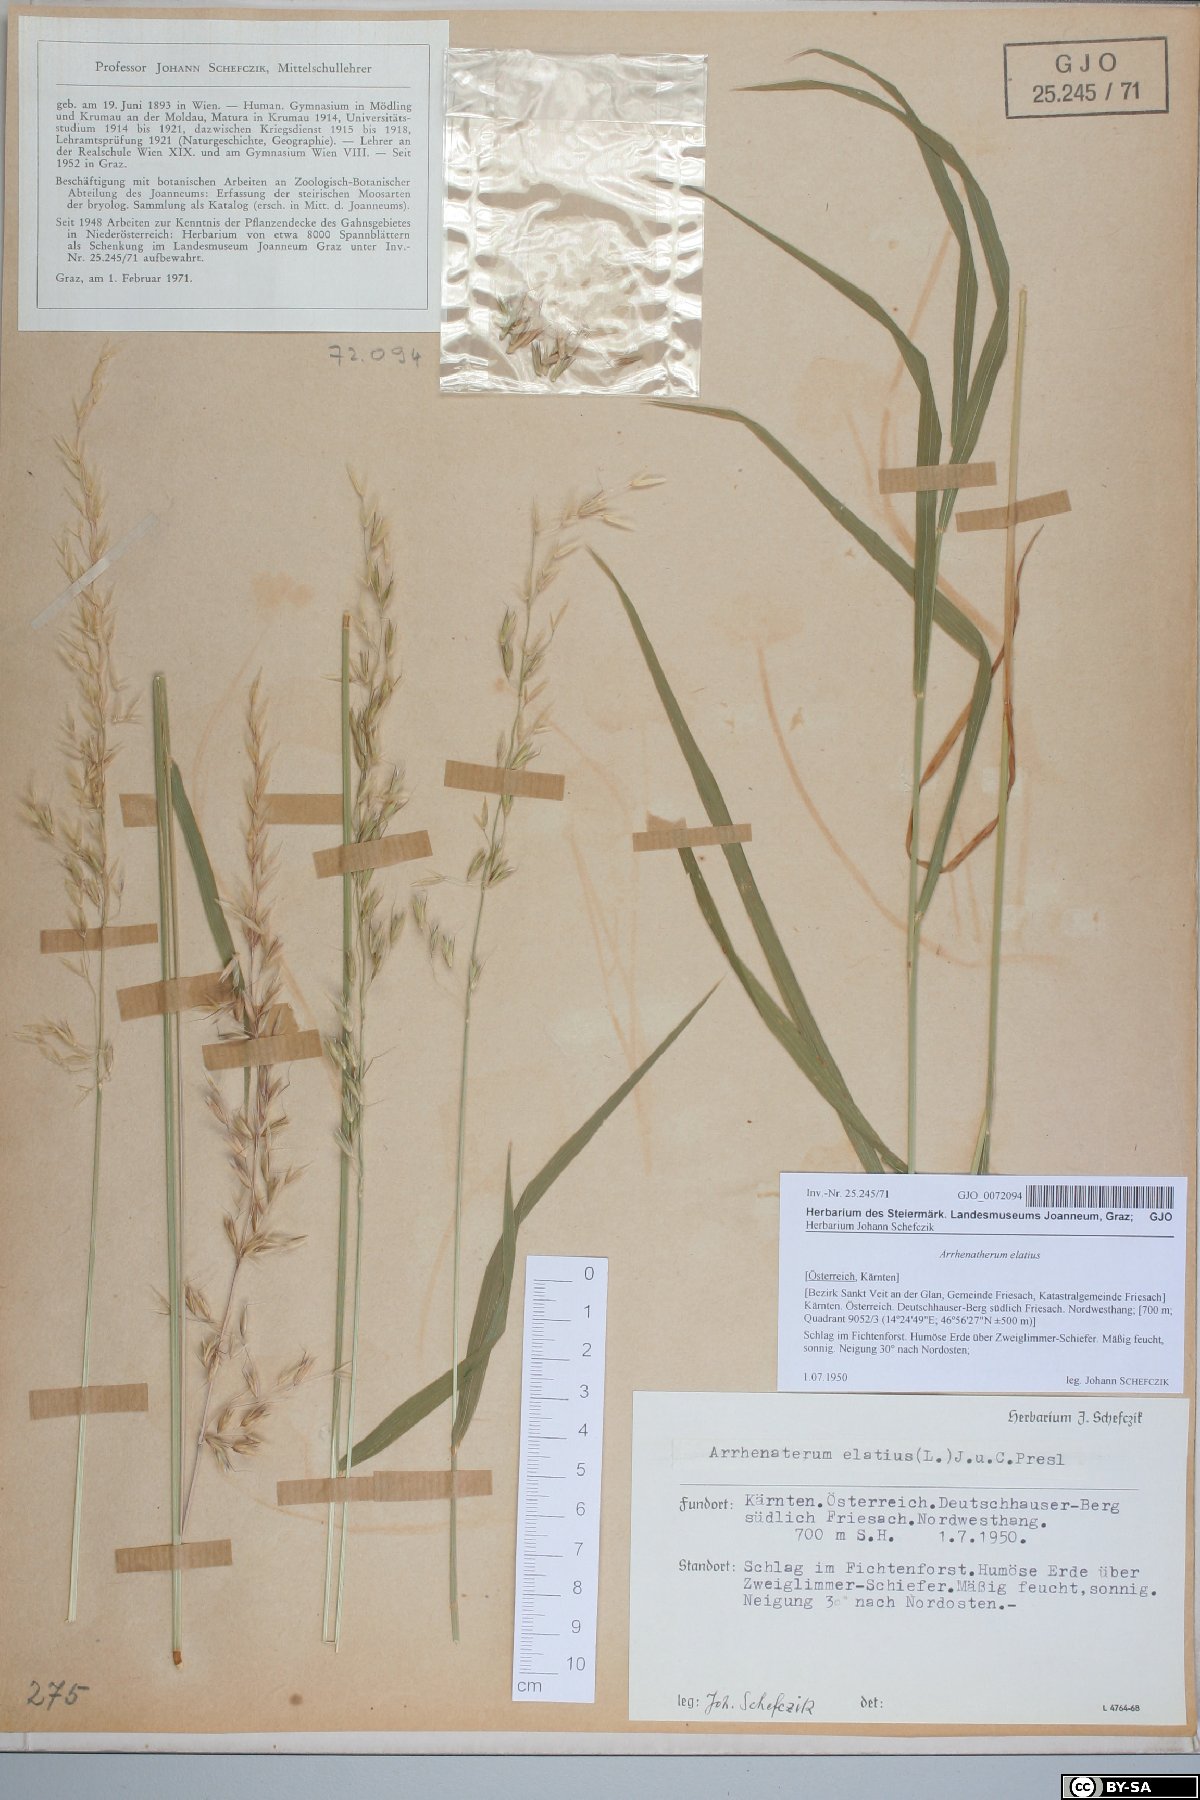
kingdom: Plantae
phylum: Tracheophyta
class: Liliopsida
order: Poales
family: Poaceae
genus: Arrhenatherum
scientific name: Arrhenatherum elatius
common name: Tall oatgrass
